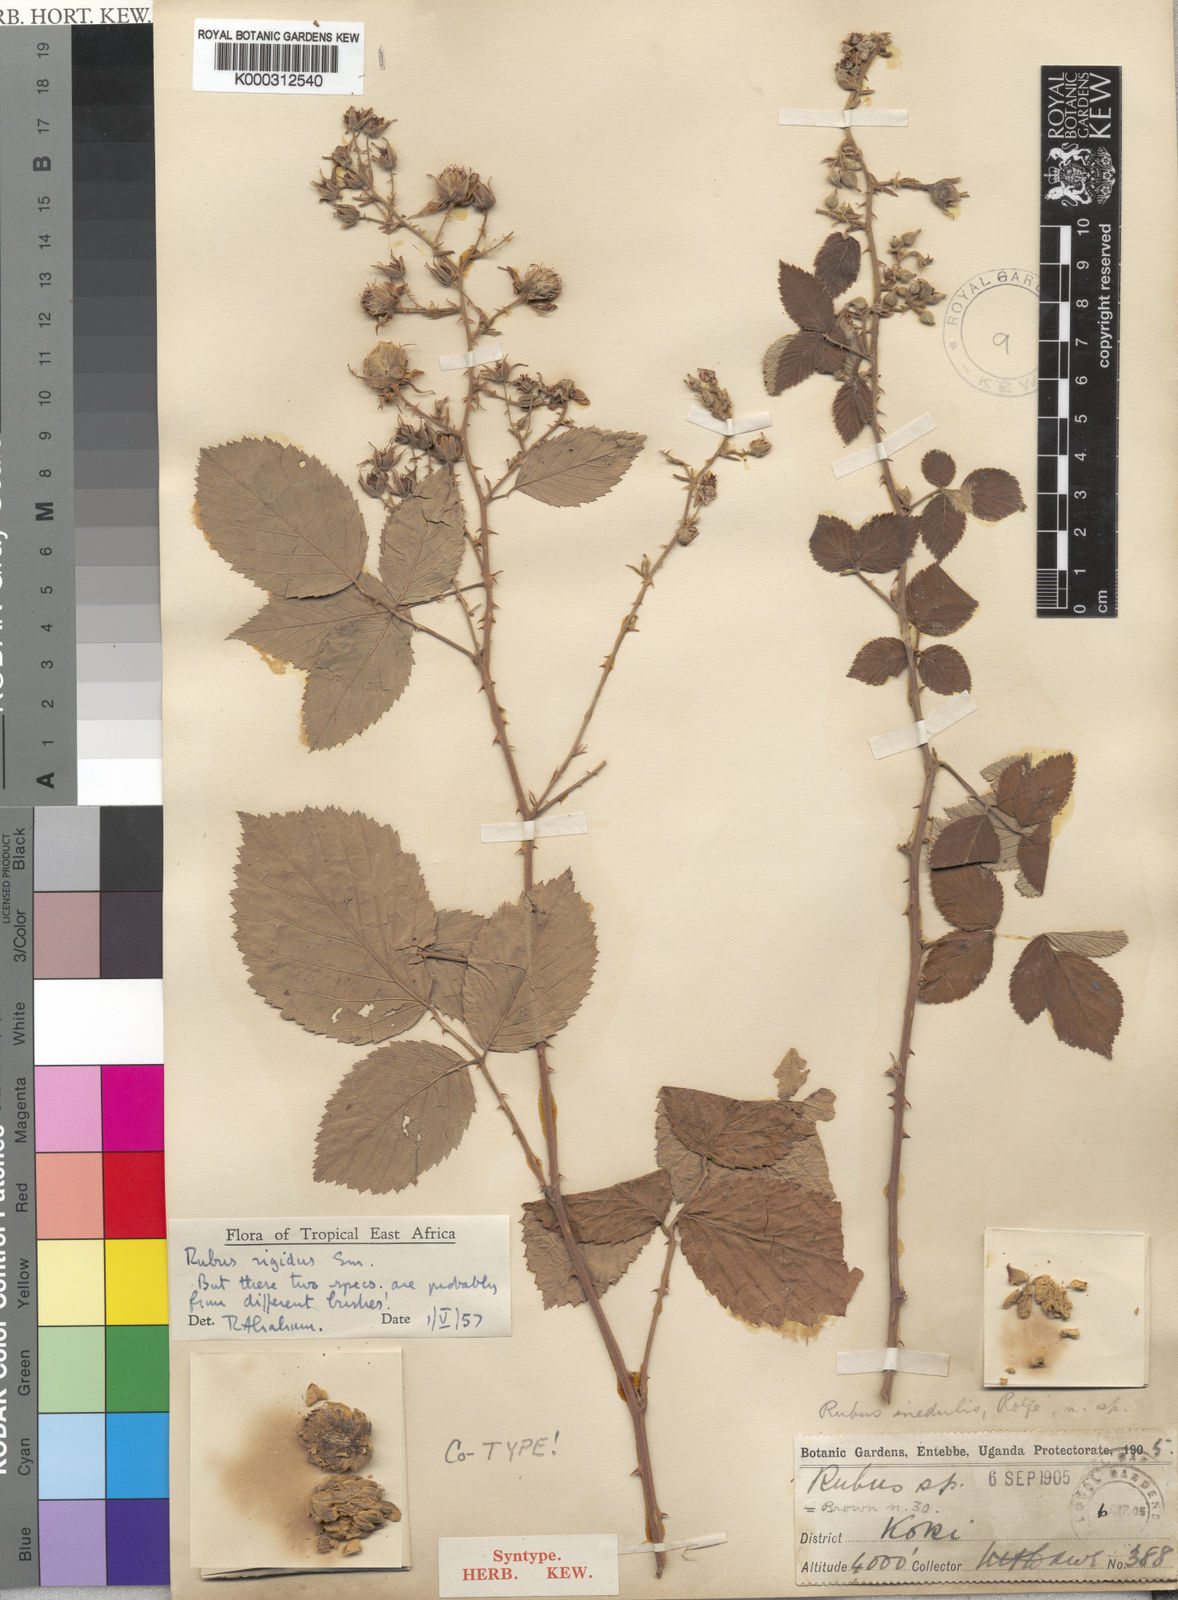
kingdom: Plantae
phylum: Tracheophyta
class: Magnoliopsida
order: Rosales
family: Rosaceae
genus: Rubus
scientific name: Rubus rigidus
